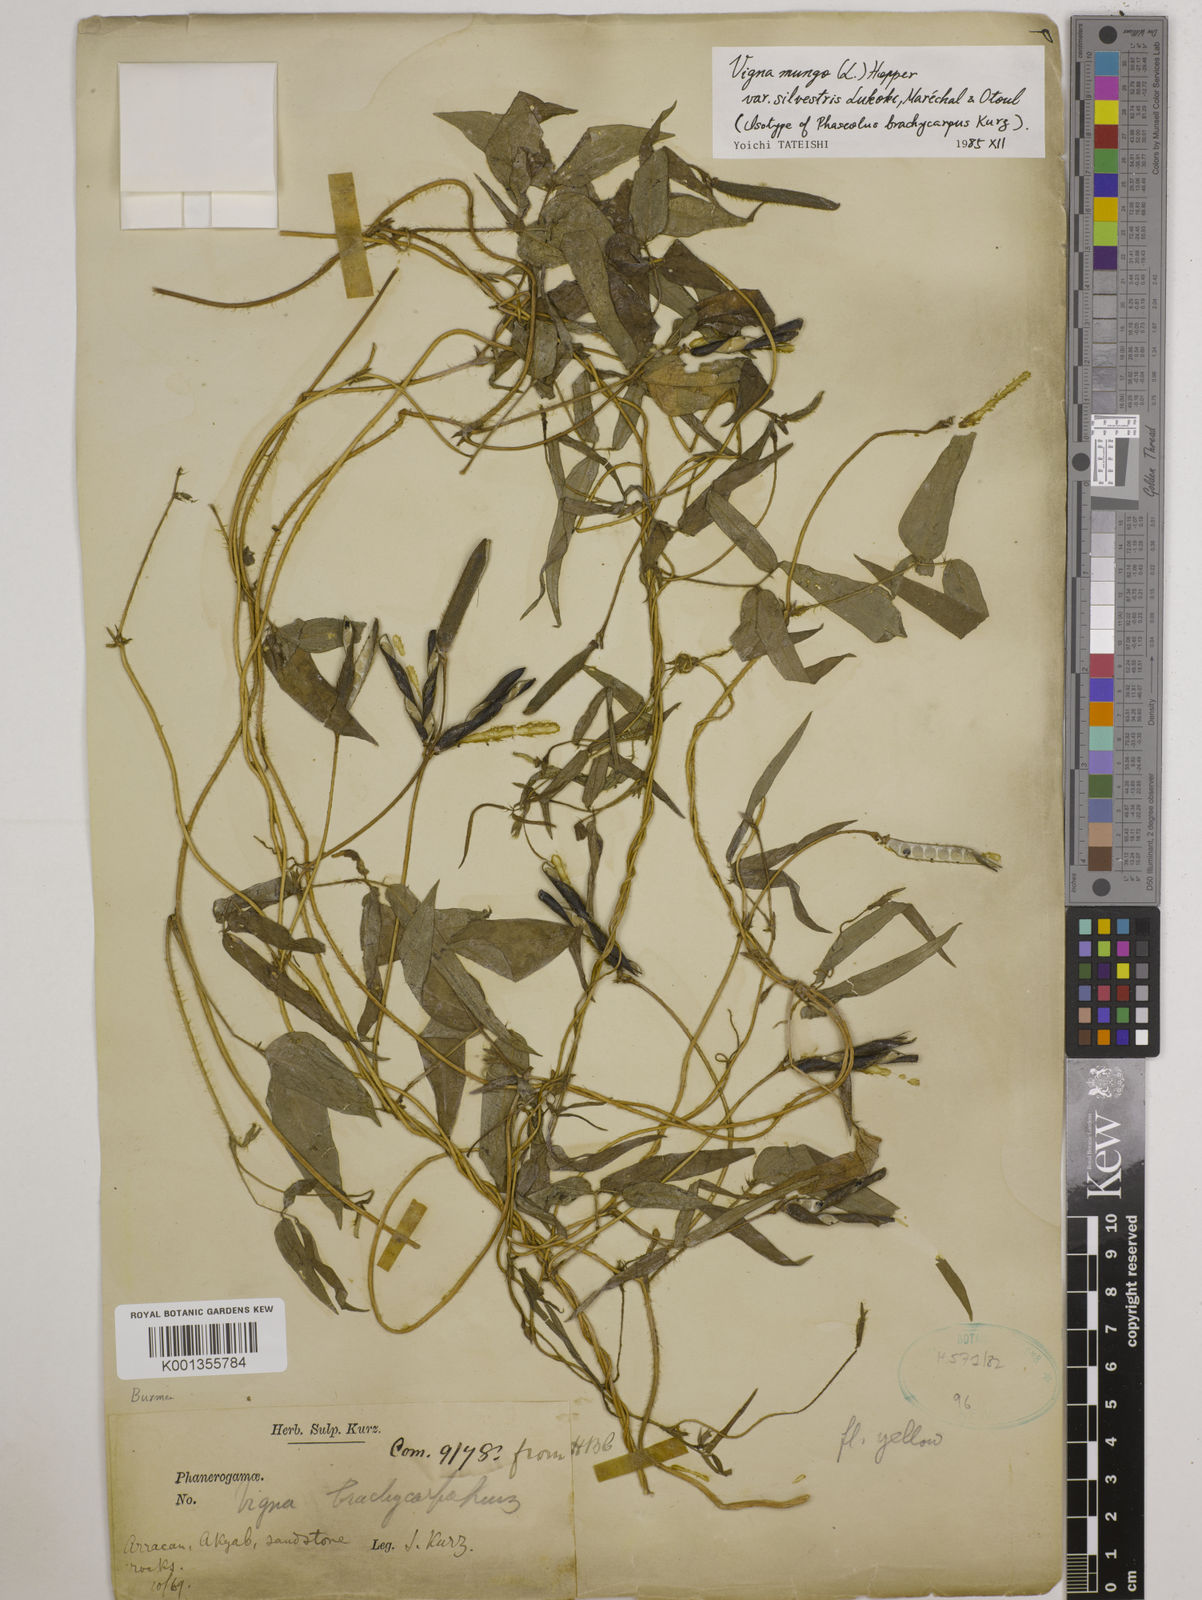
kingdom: Plantae
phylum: Tracheophyta
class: Magnoliopsida
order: Fabales
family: Fabaceae
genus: Vigna
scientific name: Vigna mungo
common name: Black gram
